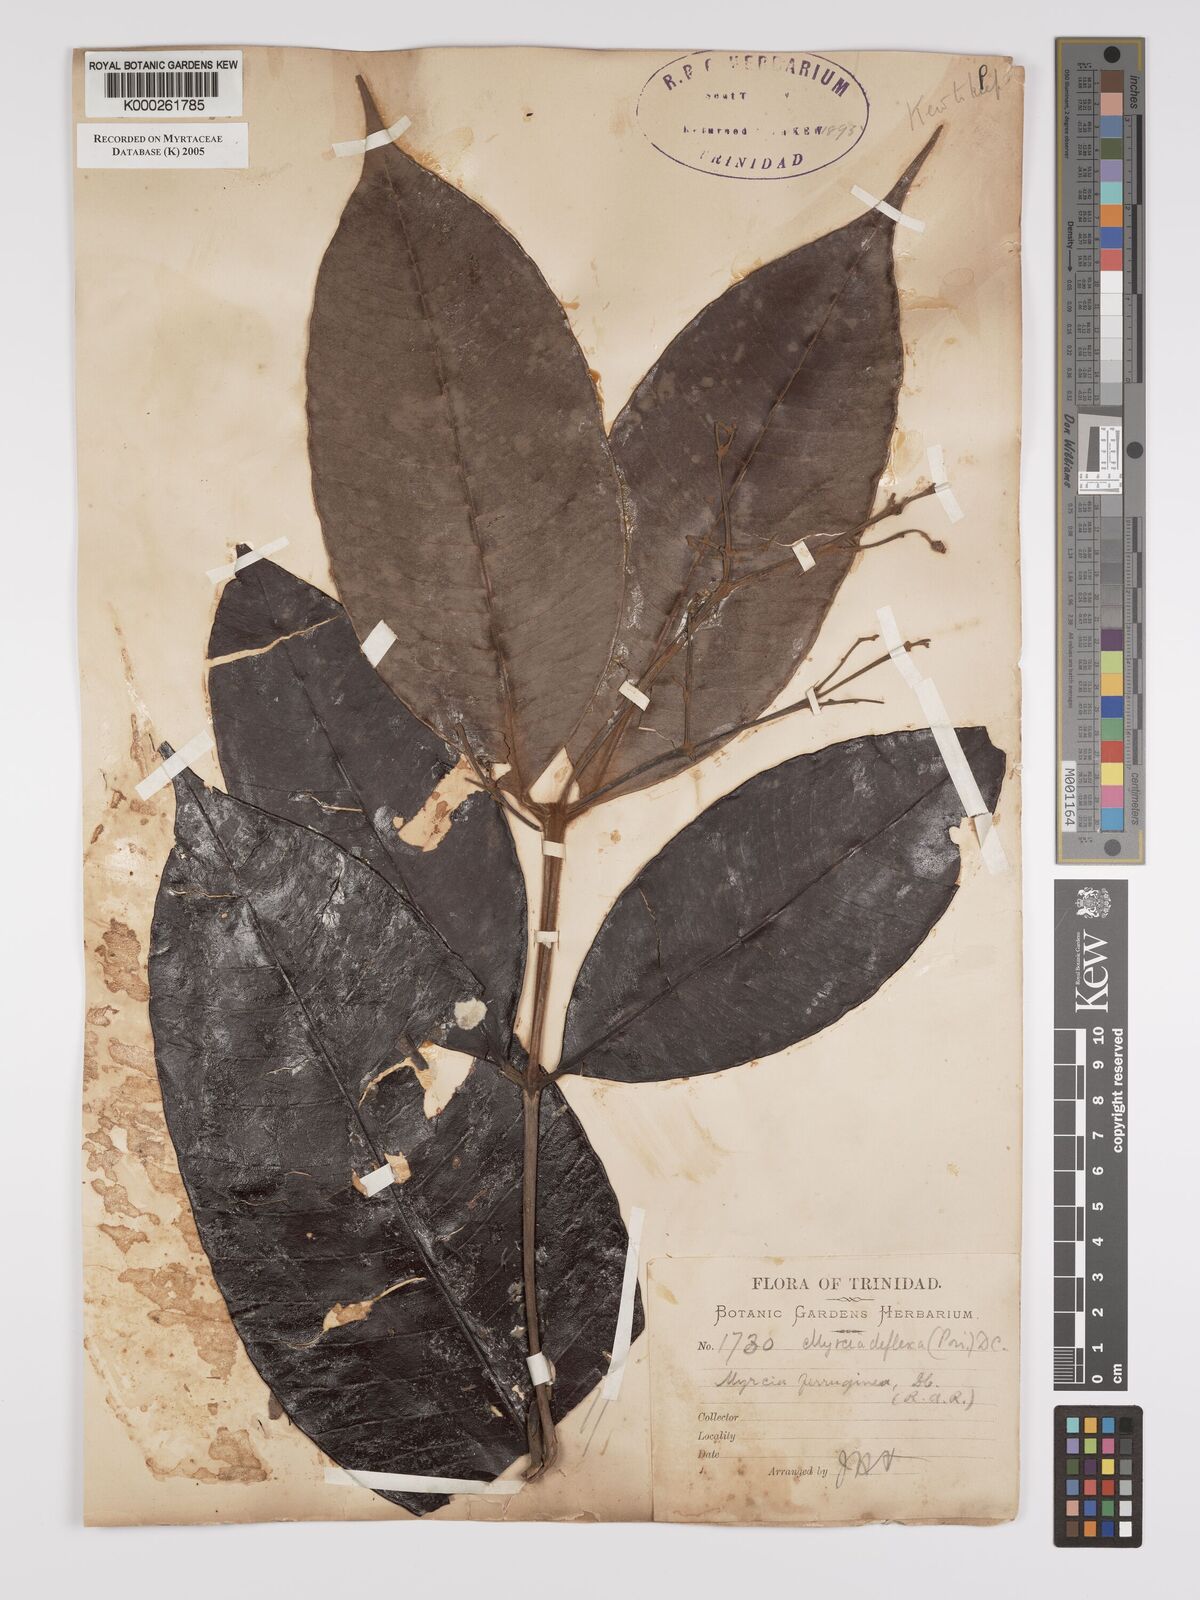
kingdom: Plantae
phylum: Tracheophyta
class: Magnoliopsida
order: Myrtales
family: Myrtaceae
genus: Myrcia
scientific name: Myrcia deflexa
